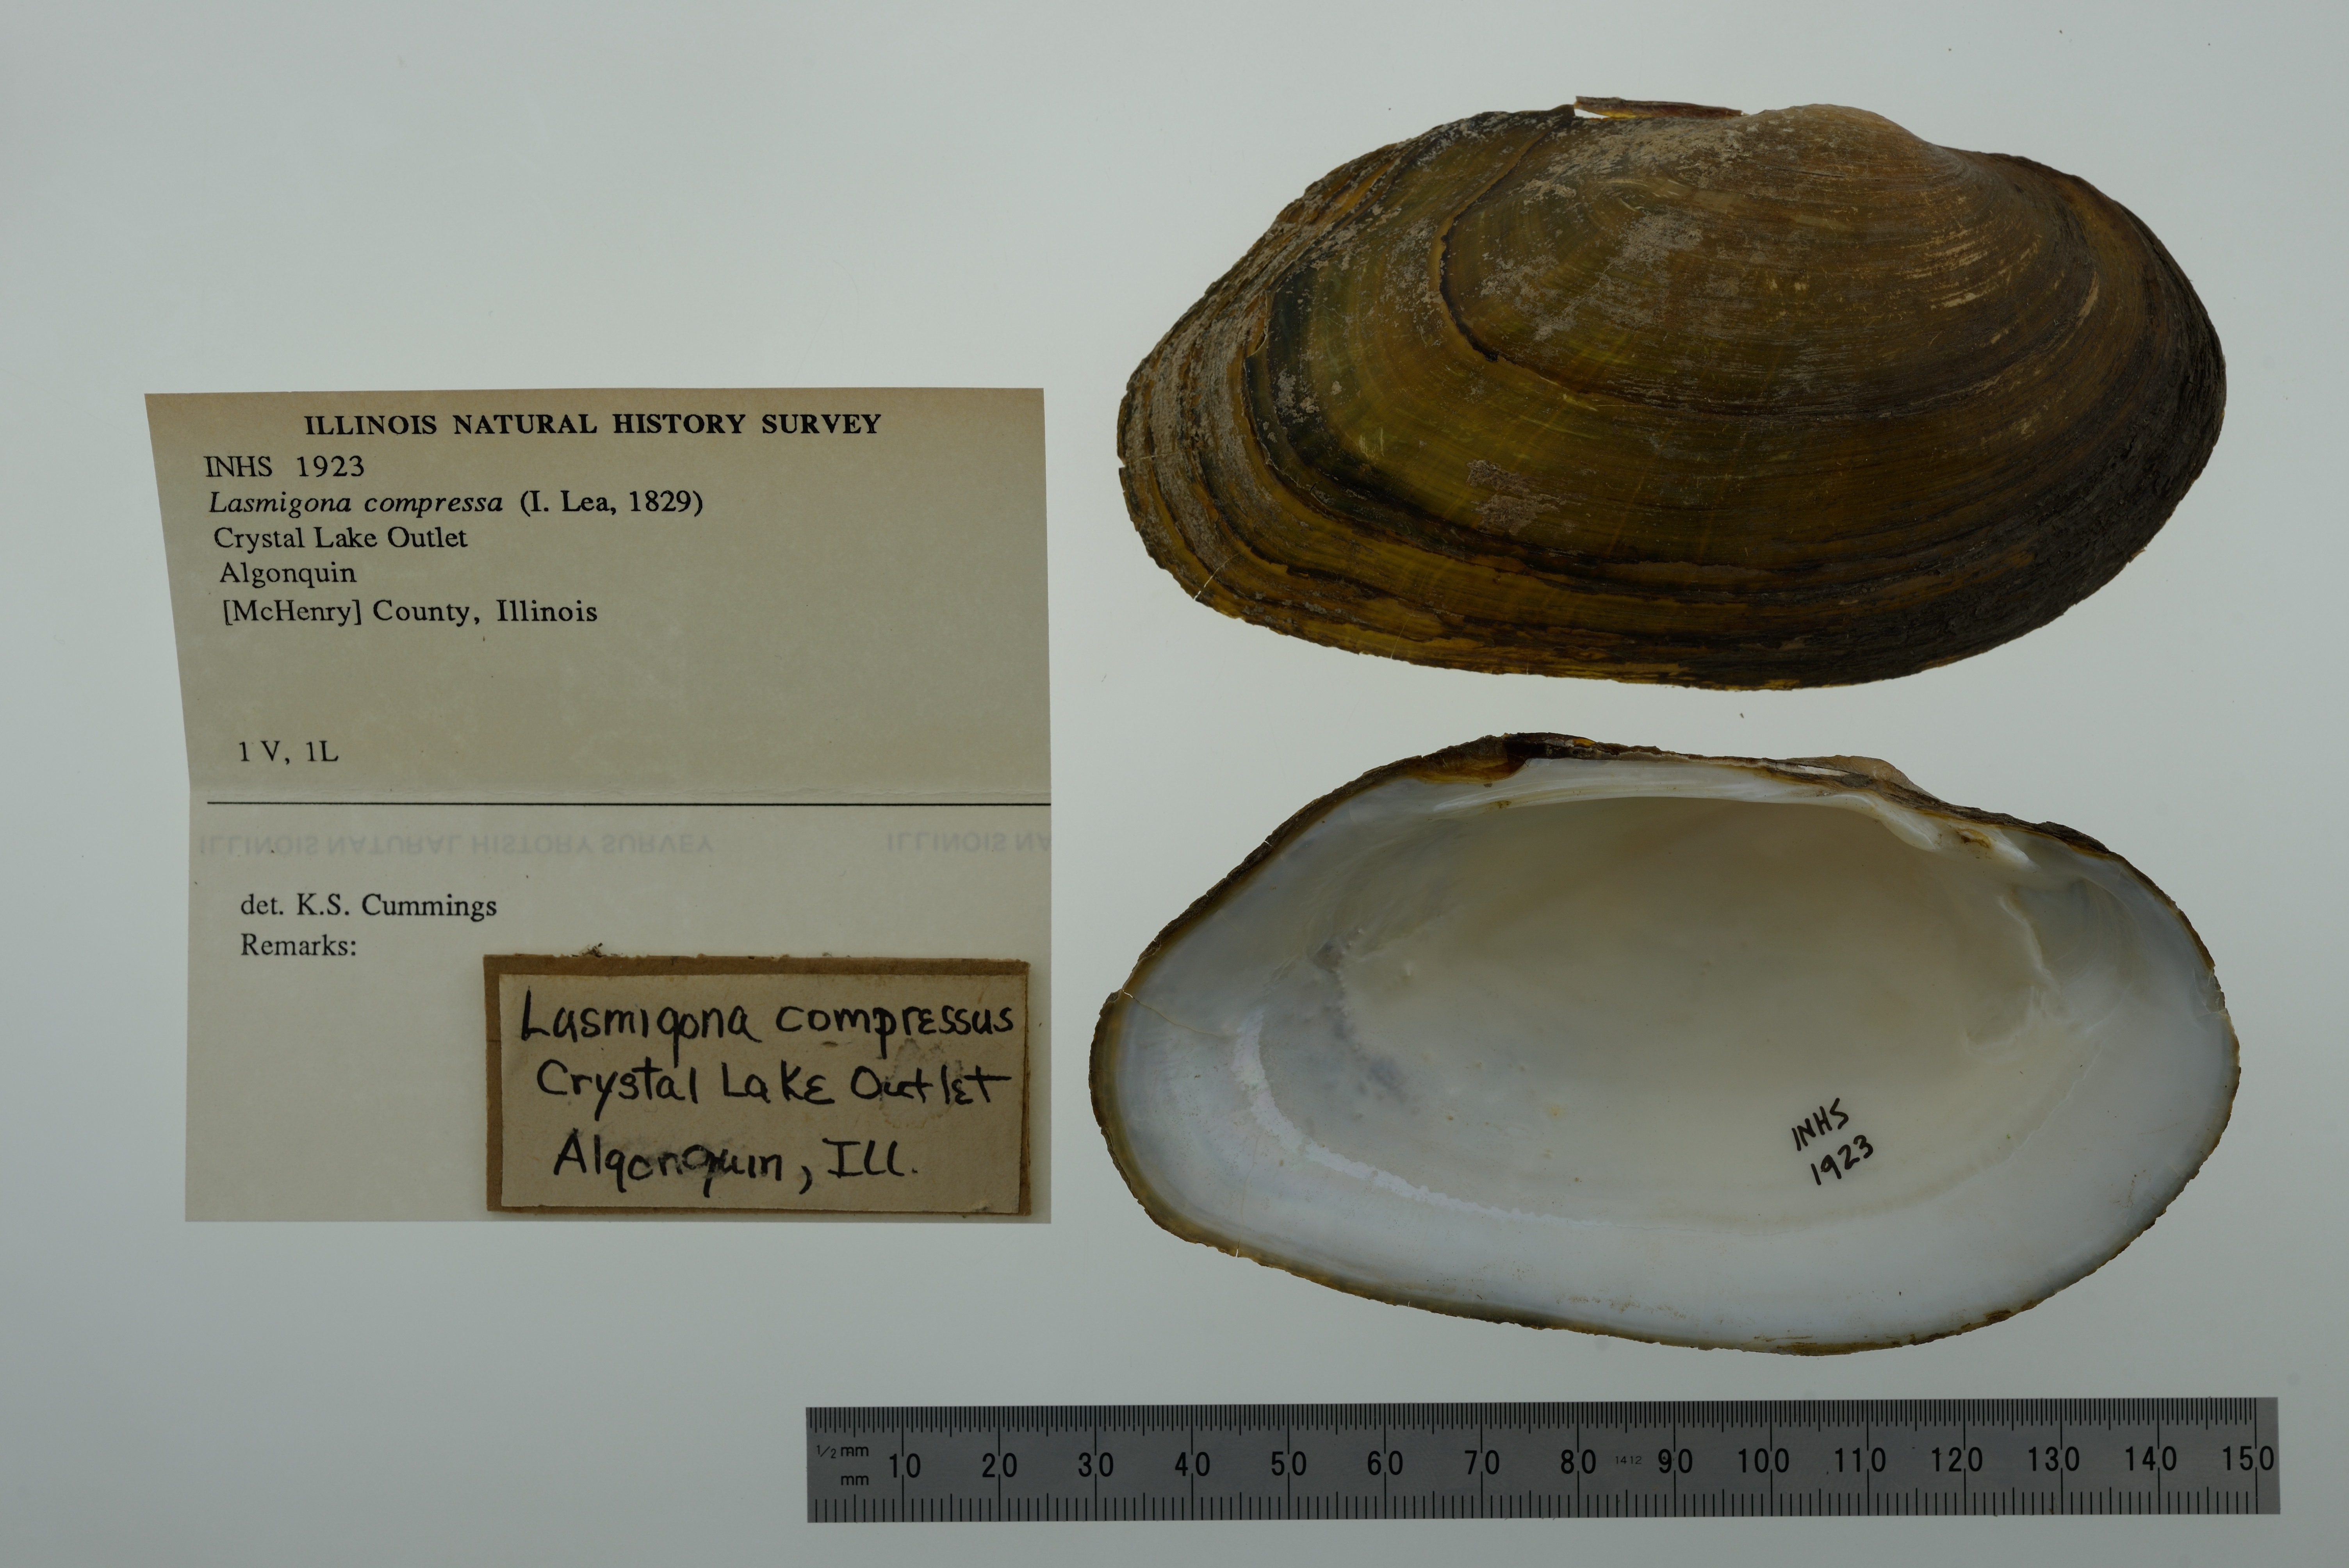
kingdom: Animalia
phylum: Mollusca
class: Bivalvia
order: Unionida
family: Unionidae
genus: Lasmigona
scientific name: Lasmigona compressa
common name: Creek heelsplitter
